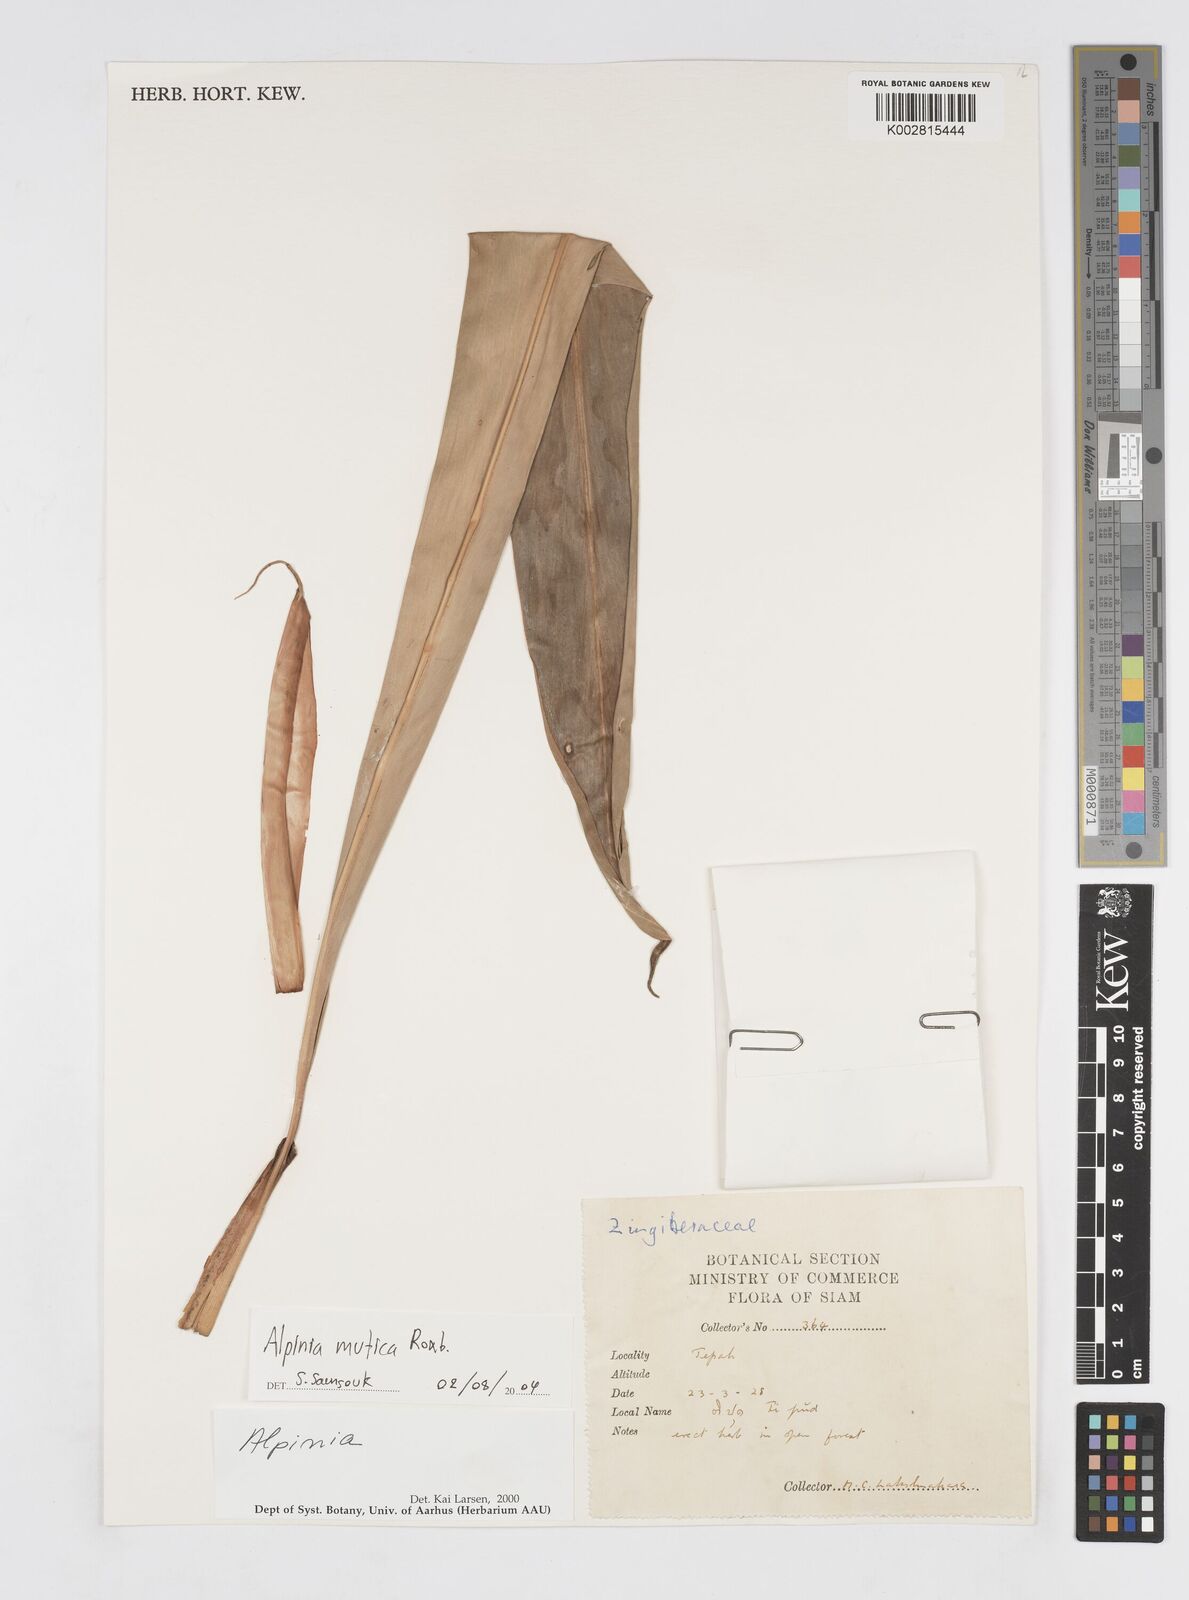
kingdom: Plantae
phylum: Tracheophyta
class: Liliopsida
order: Zingiberales
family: Zingiberaceae
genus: Alpinia
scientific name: Alpinia mutica
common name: Small shell ginger
